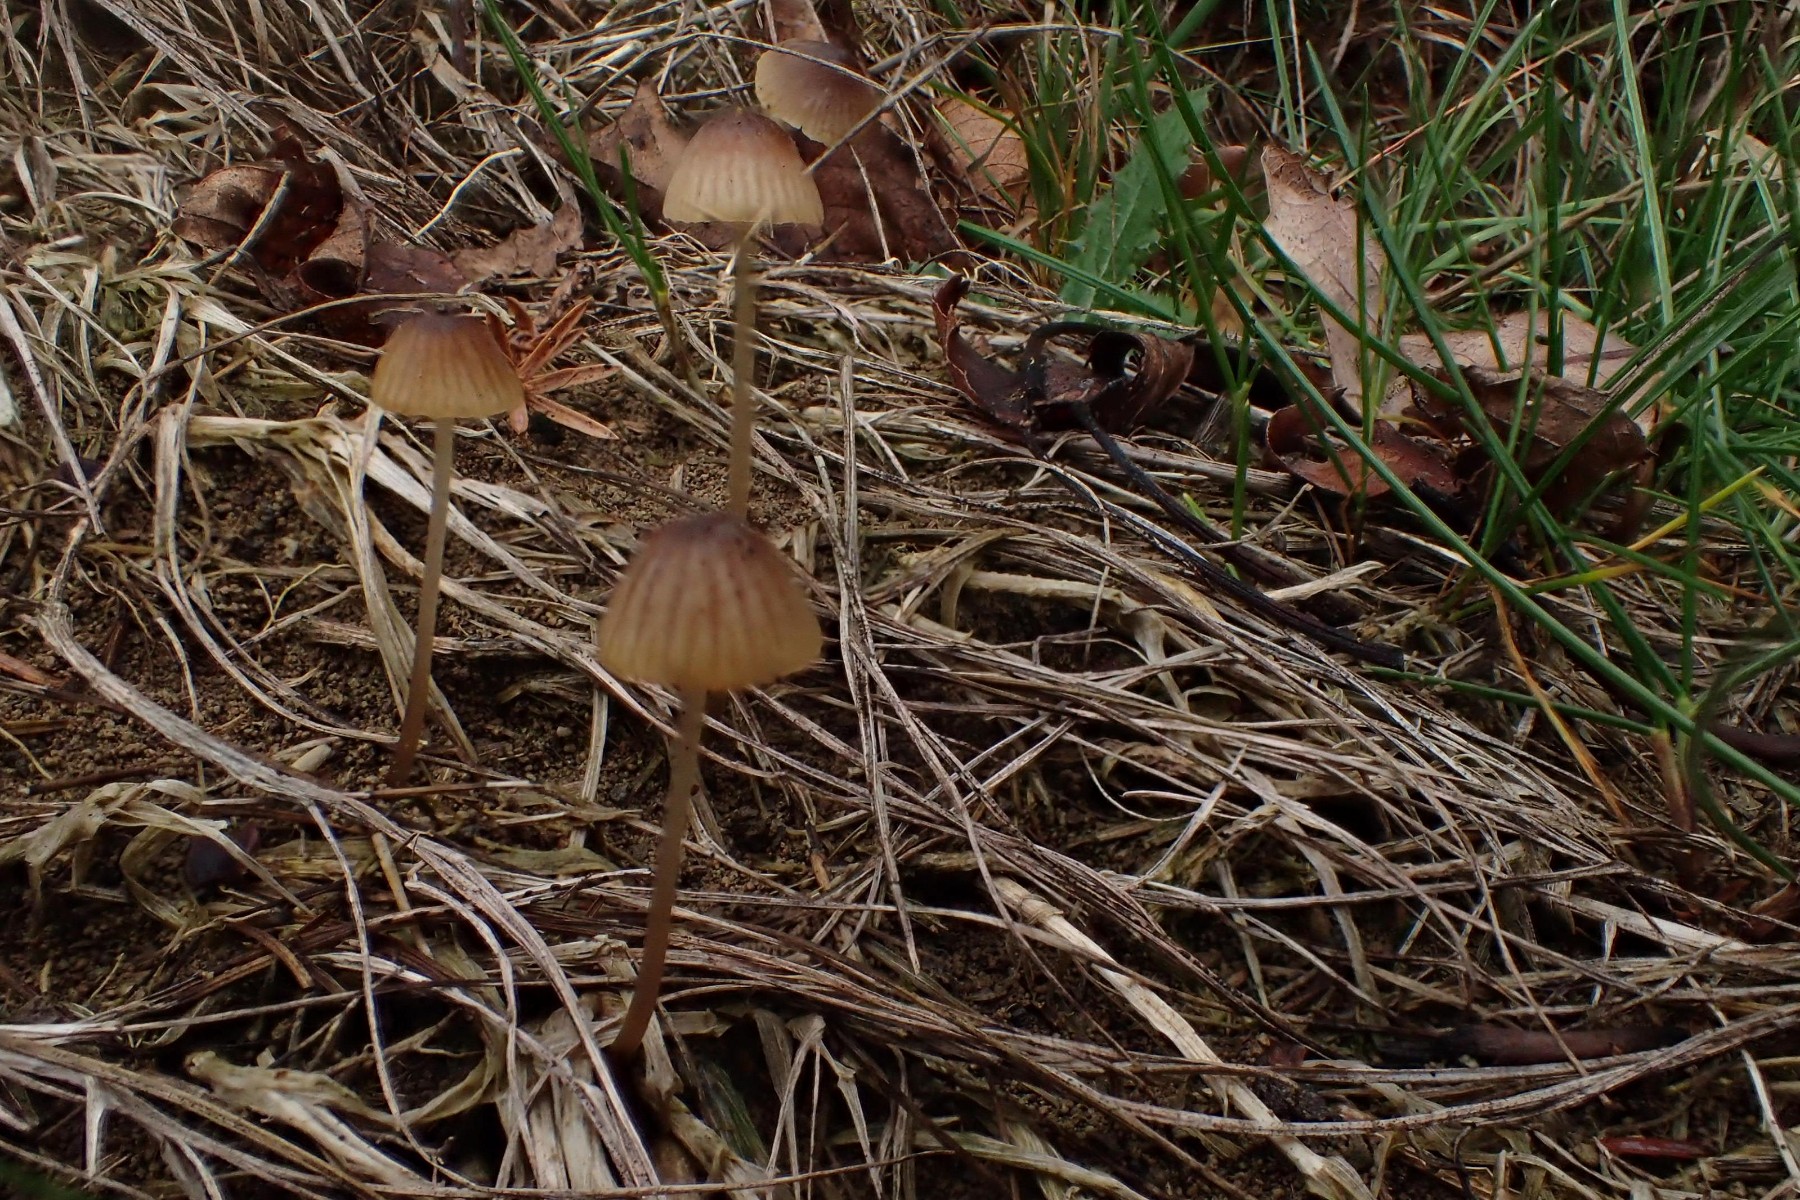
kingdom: Fungi
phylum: Basidiomycota
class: Agaricomycetes
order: Agaricales
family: Mycenaceae
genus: Mycena
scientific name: Mycena olivaceomarginata
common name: brunægget huesvamp
